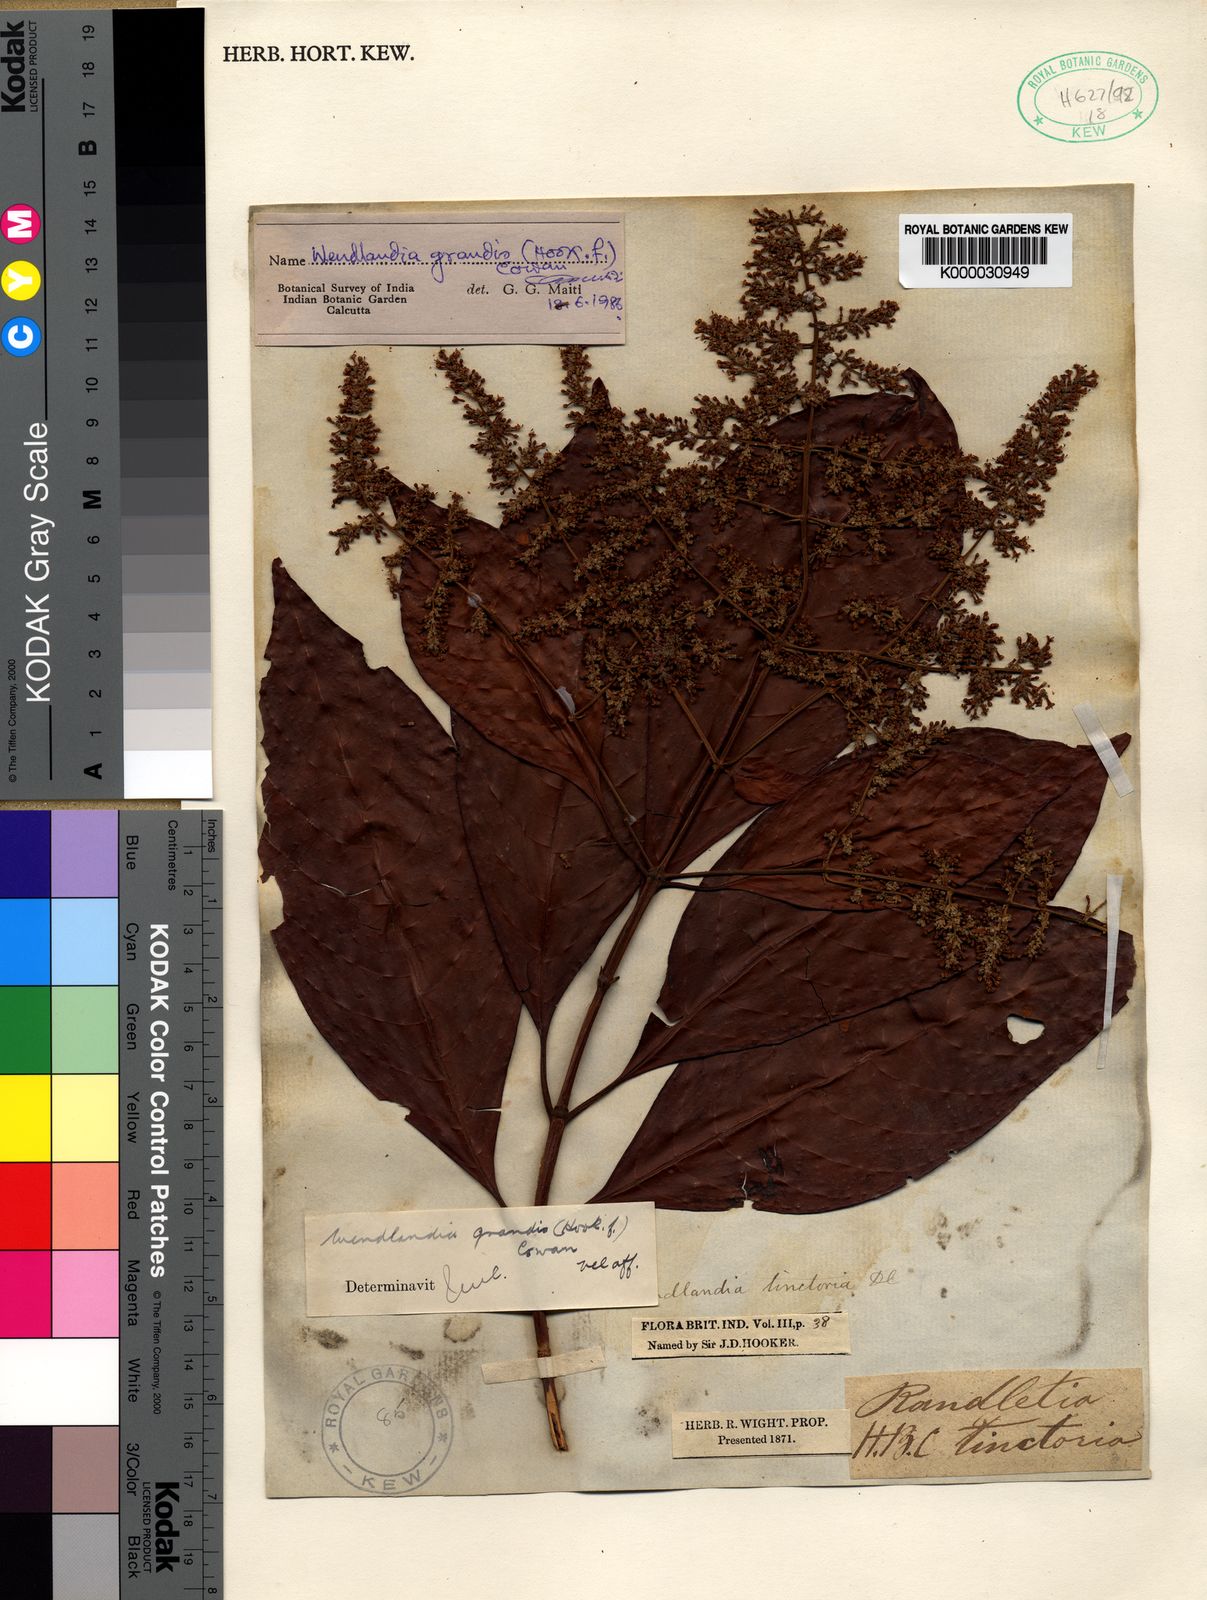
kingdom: Plantae
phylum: Tracheophyta
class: Magnoliopsida
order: Gentianales
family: Rubiaceae
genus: Wendlandia
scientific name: Wendlandia tinctoria
